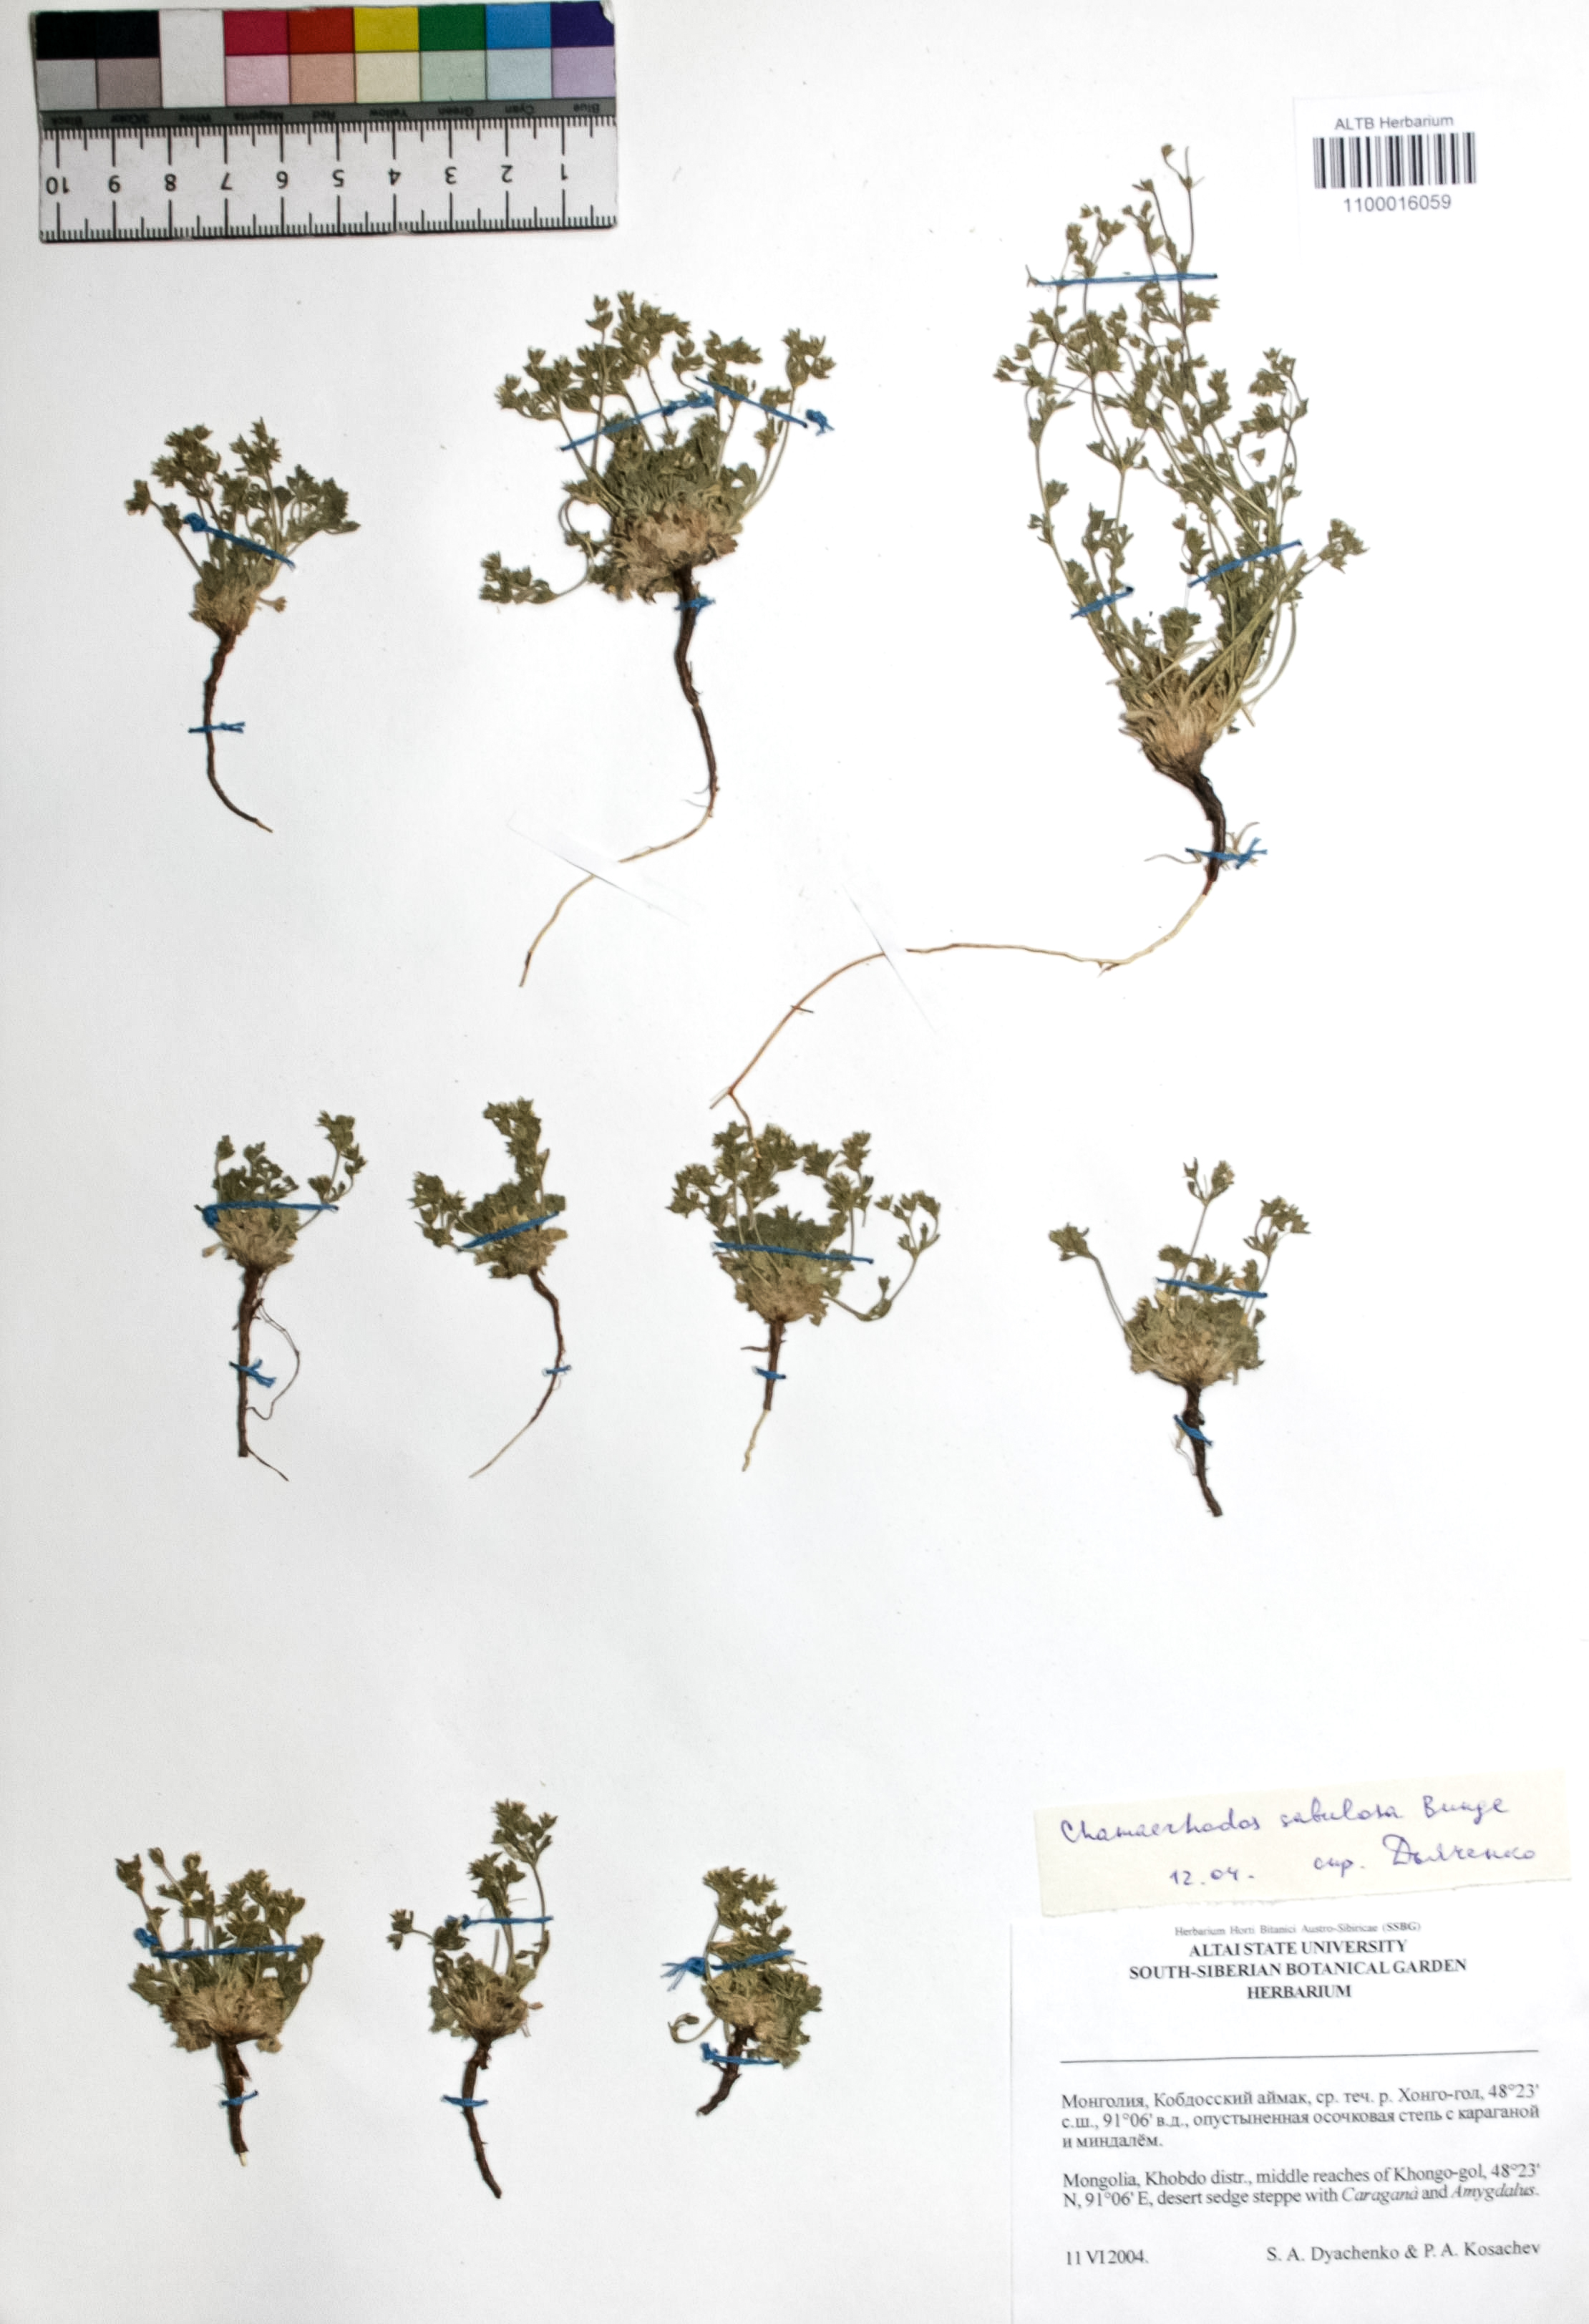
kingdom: Plantae
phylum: Tracheophyta
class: Magnoliopsida
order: Rosales
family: Rosaceae
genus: Chamaerhodos
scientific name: Chamaerhodos sabulosa
